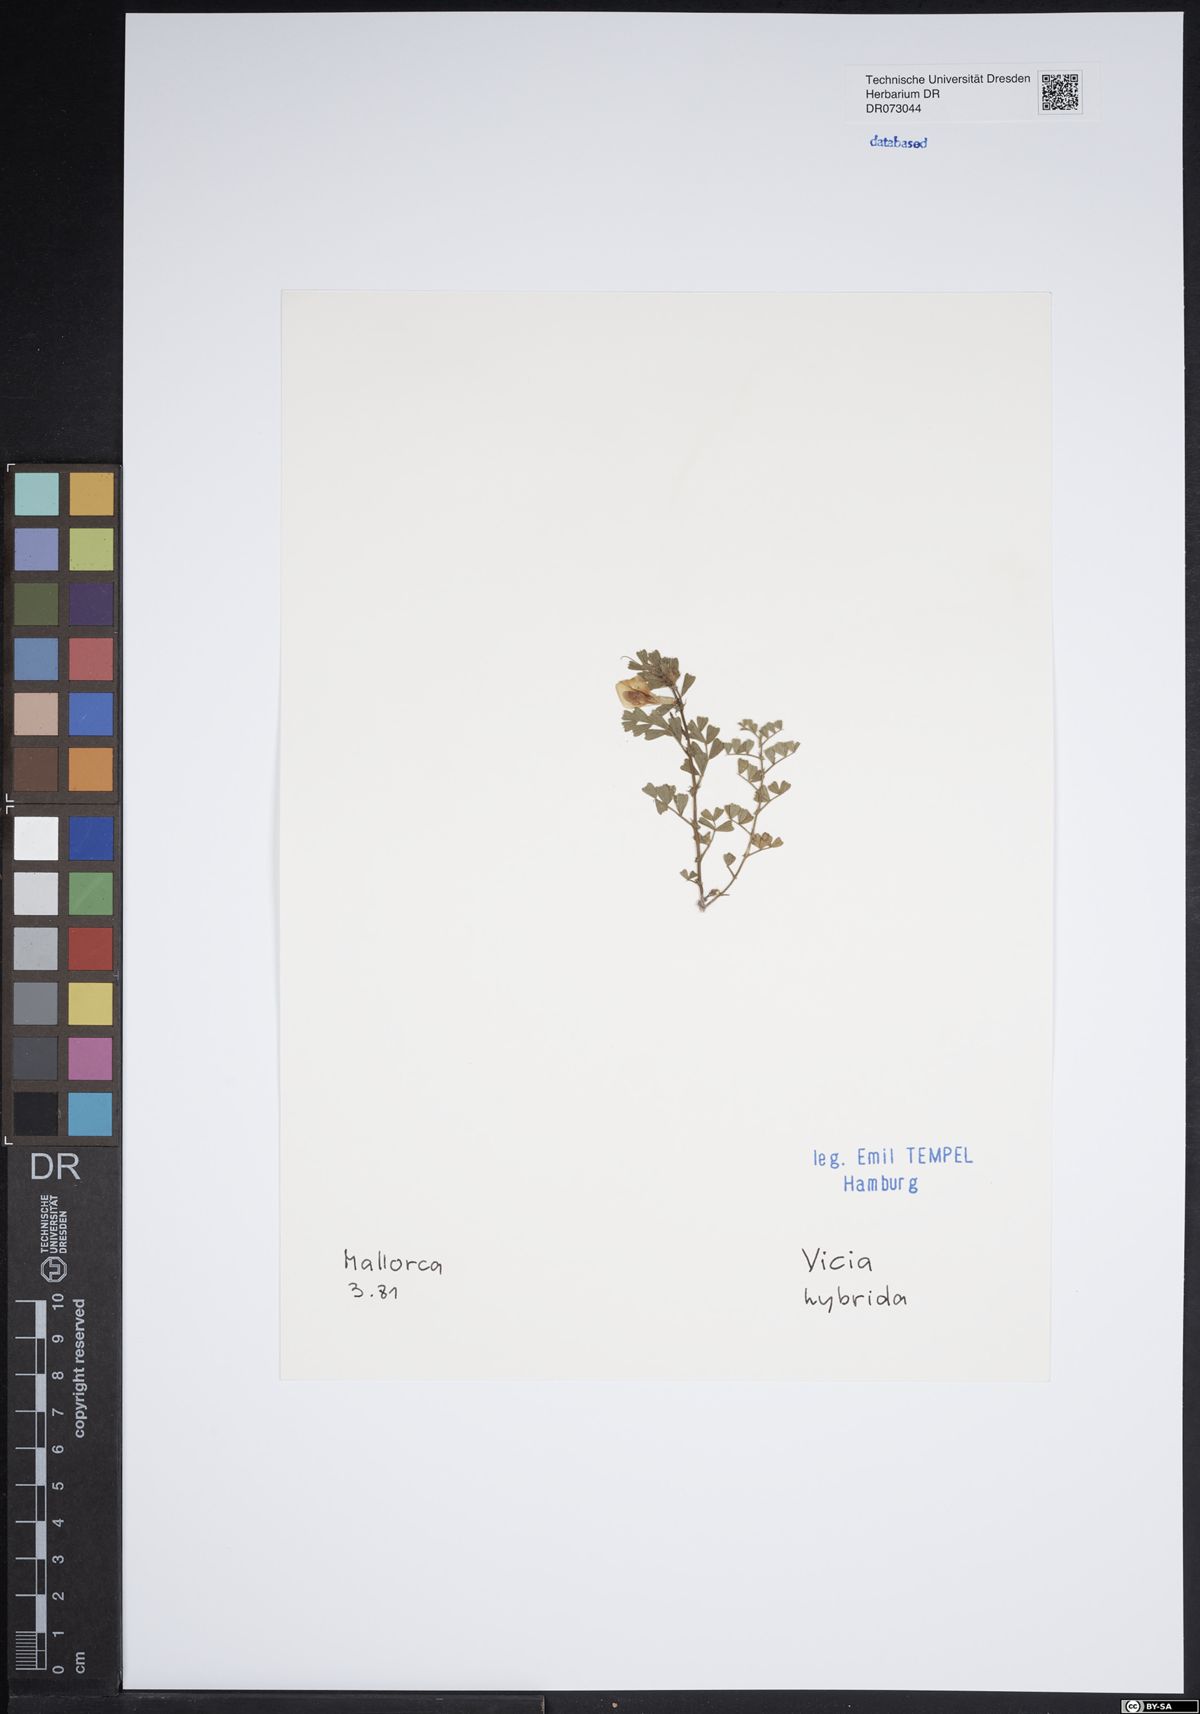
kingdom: Plantae
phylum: Tracheophyta
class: Magnoliopsida
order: Fabales
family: Fabaceae
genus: Bituminaria
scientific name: Bituminaria bituminosa
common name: Arabian pea
